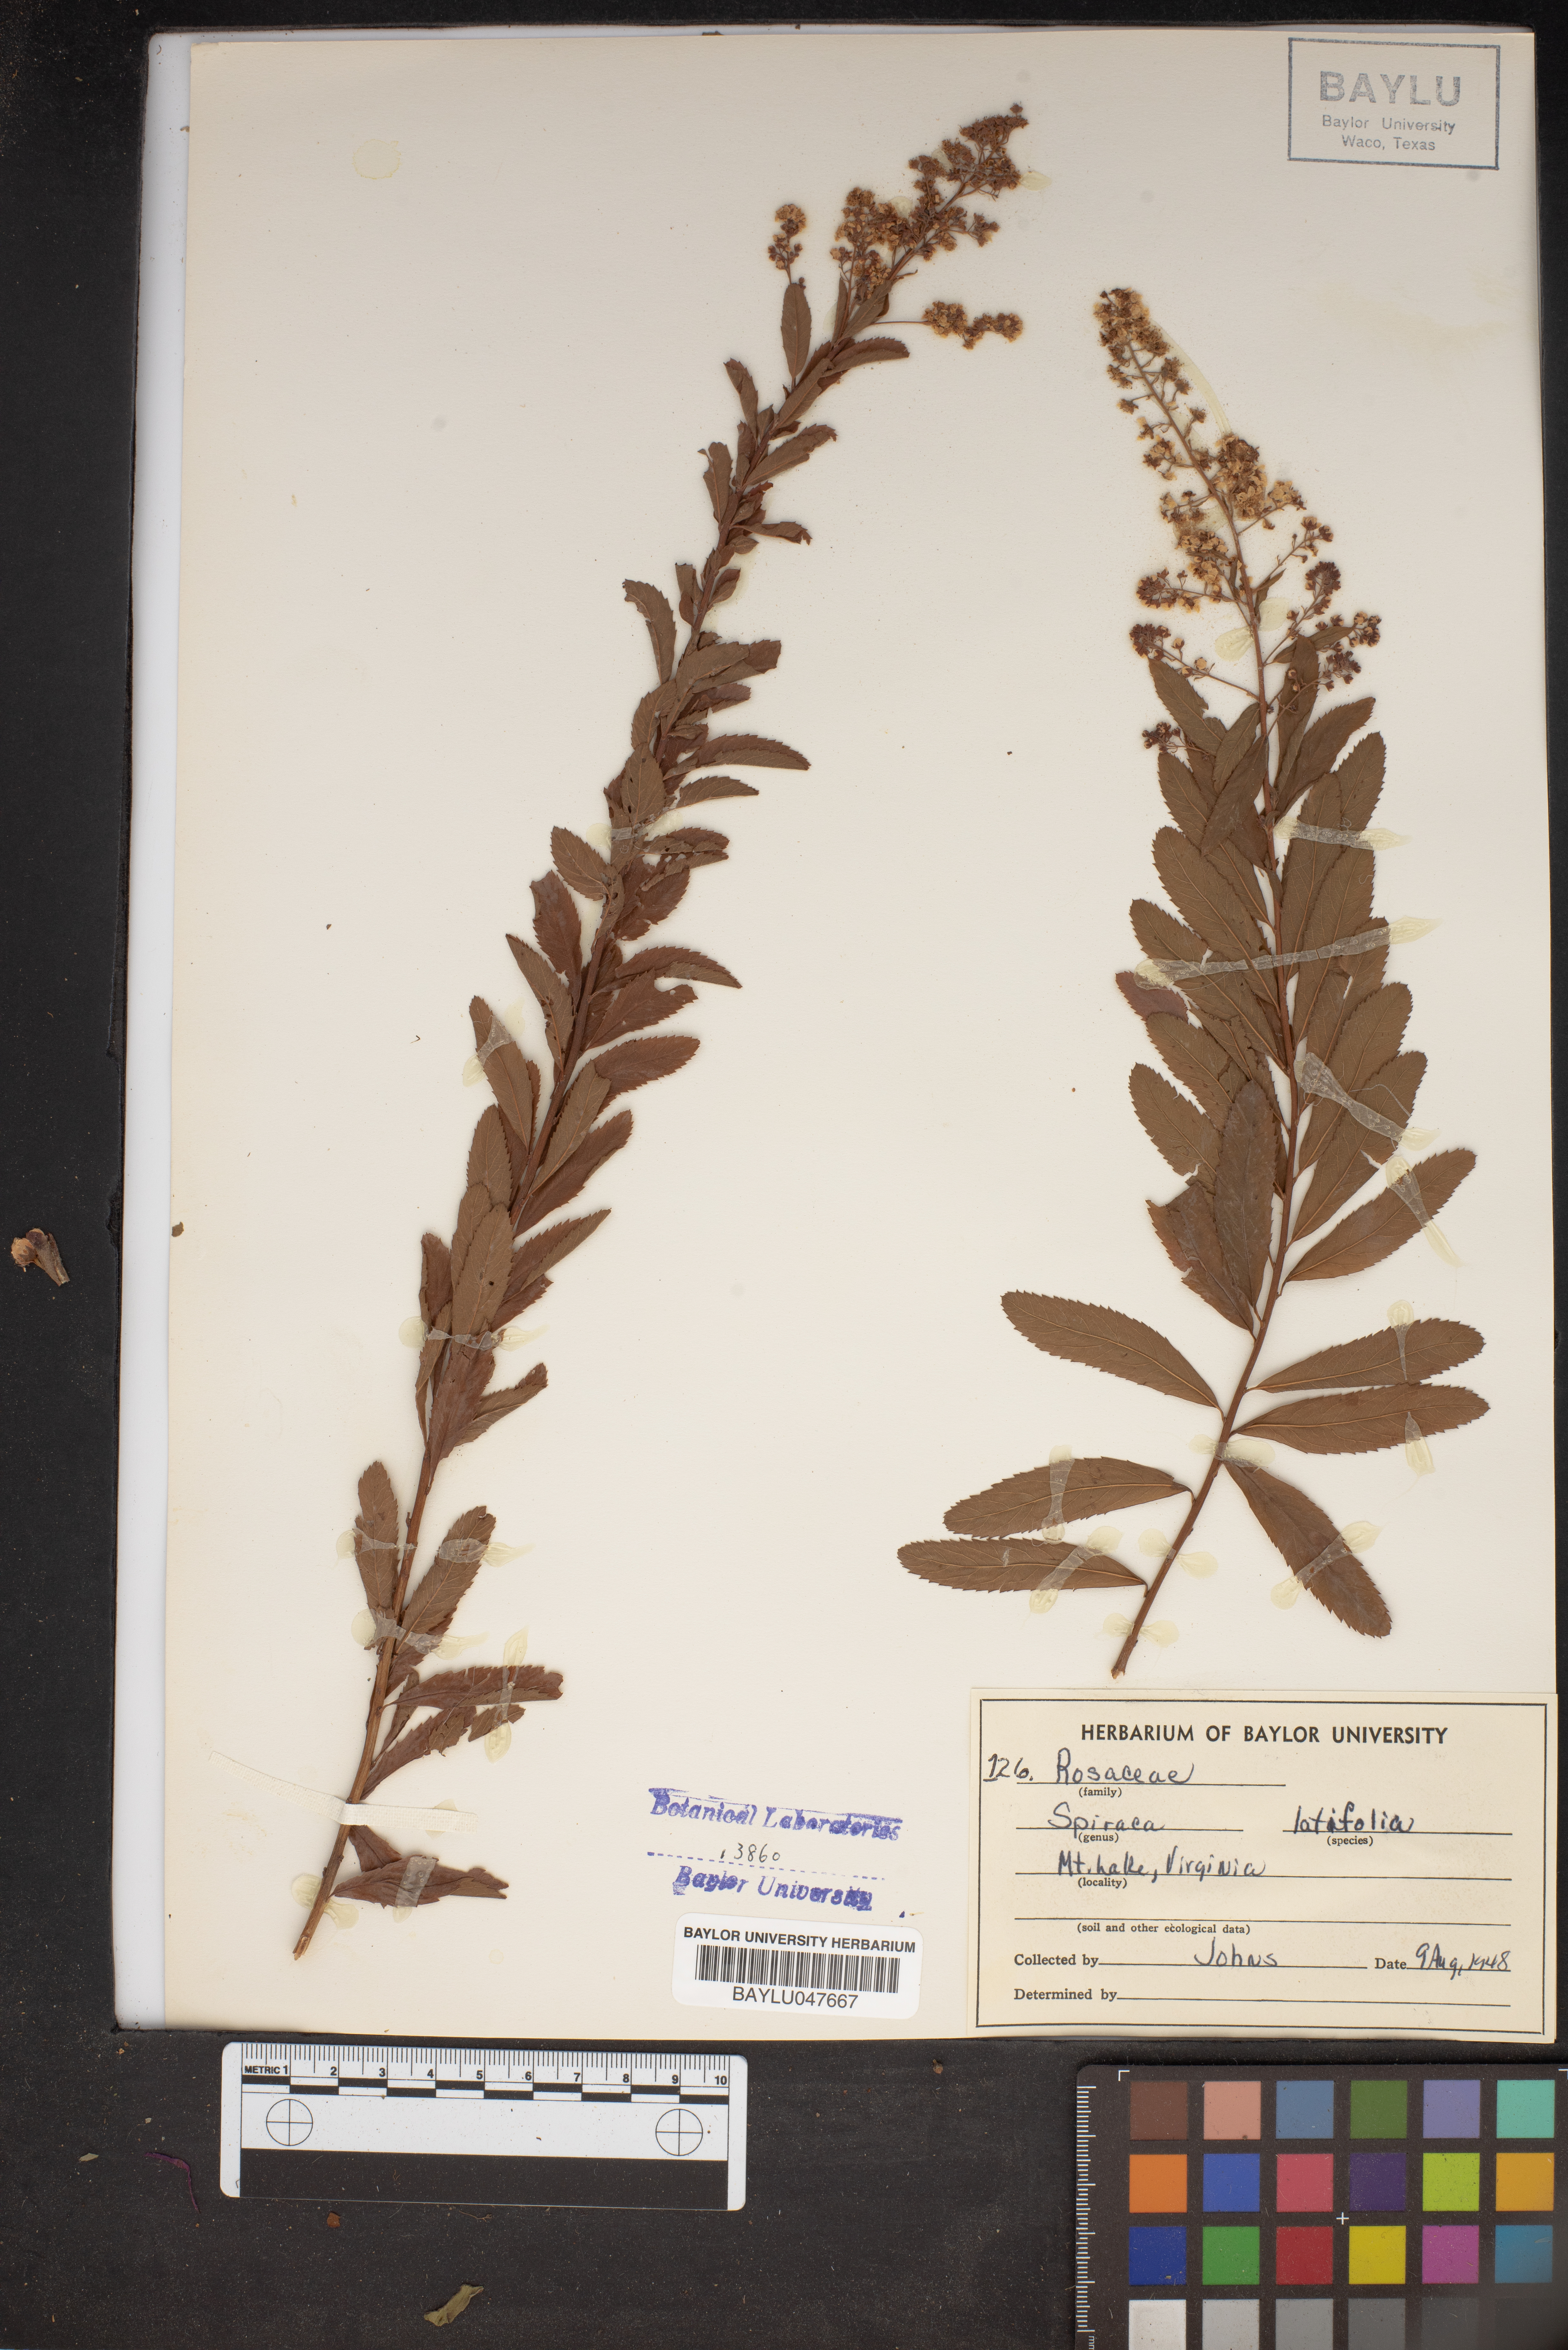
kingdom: Plantae
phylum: Tracheophyta
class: Magnoliopsida
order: Rosales
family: Rosaceae
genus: Spiraea
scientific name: Spiraea alba
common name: Pale bridewort
